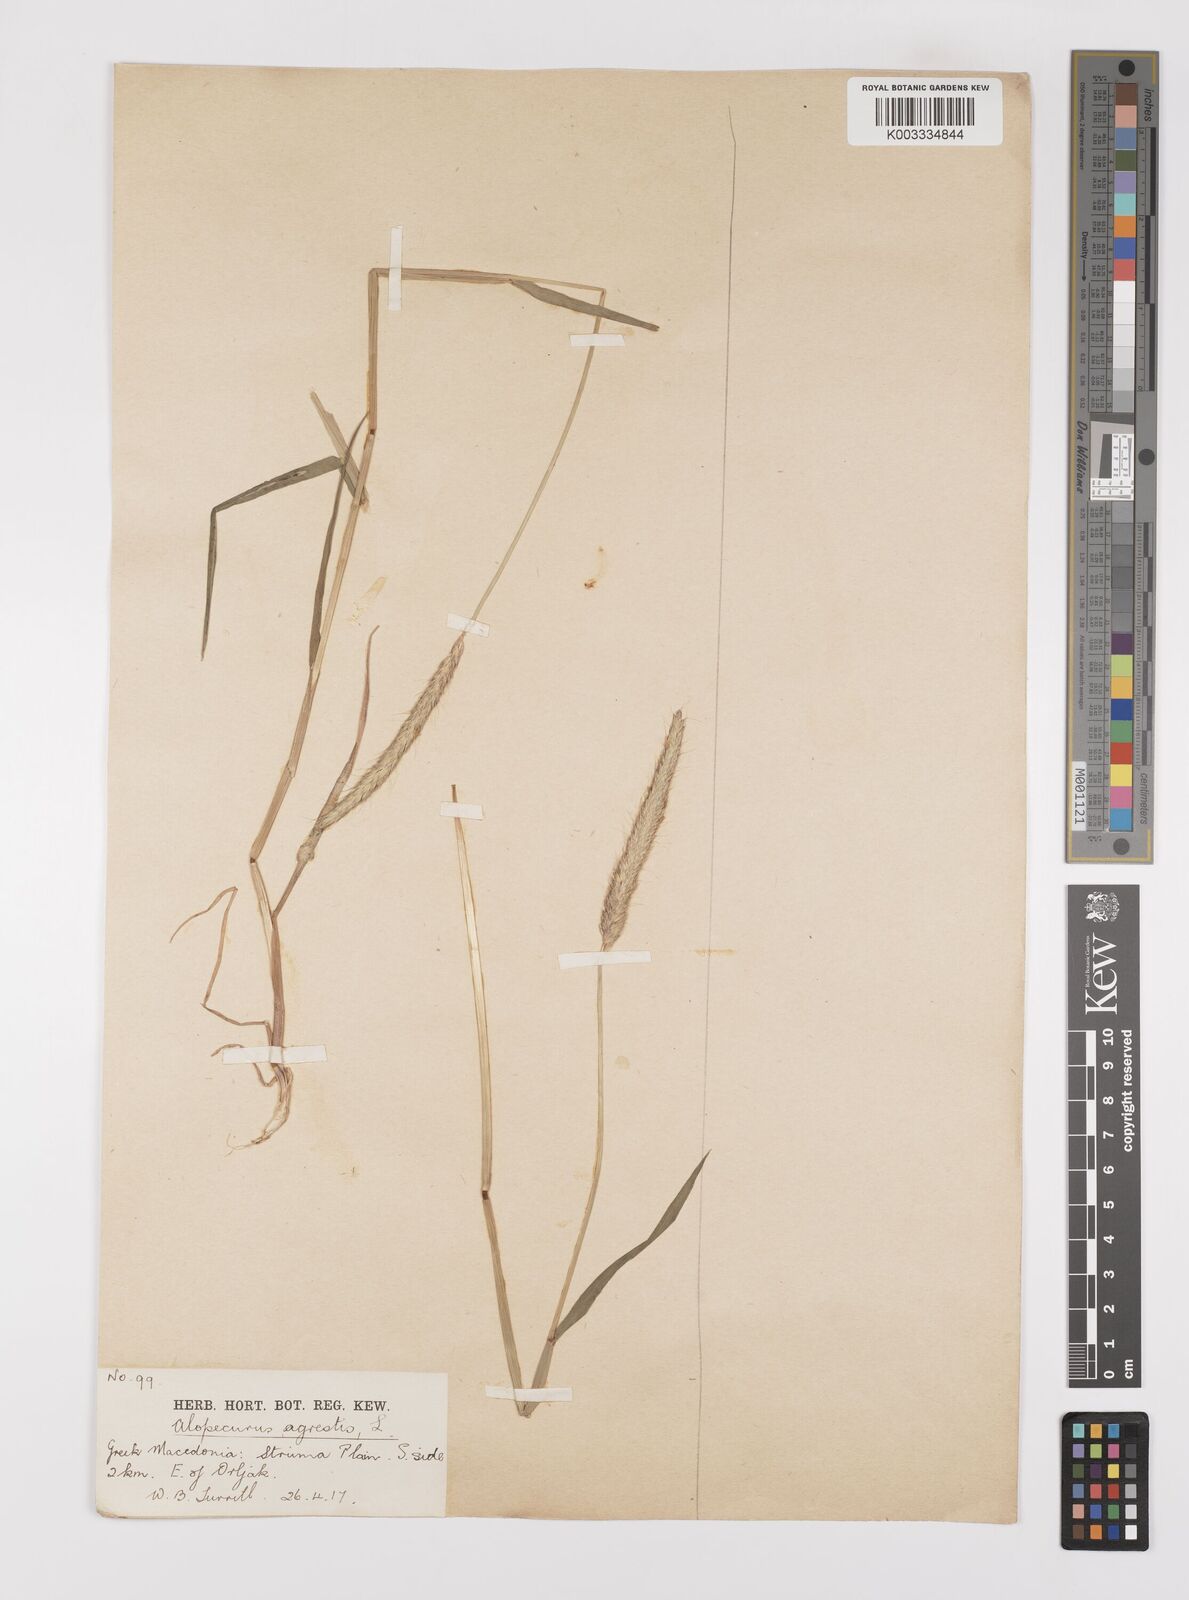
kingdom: Plantae
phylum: Tracheophyta
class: Liliopsida
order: Poales
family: Poaceae
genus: Alopecurus
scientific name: Alopecurus myosuroides
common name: Black-grass
